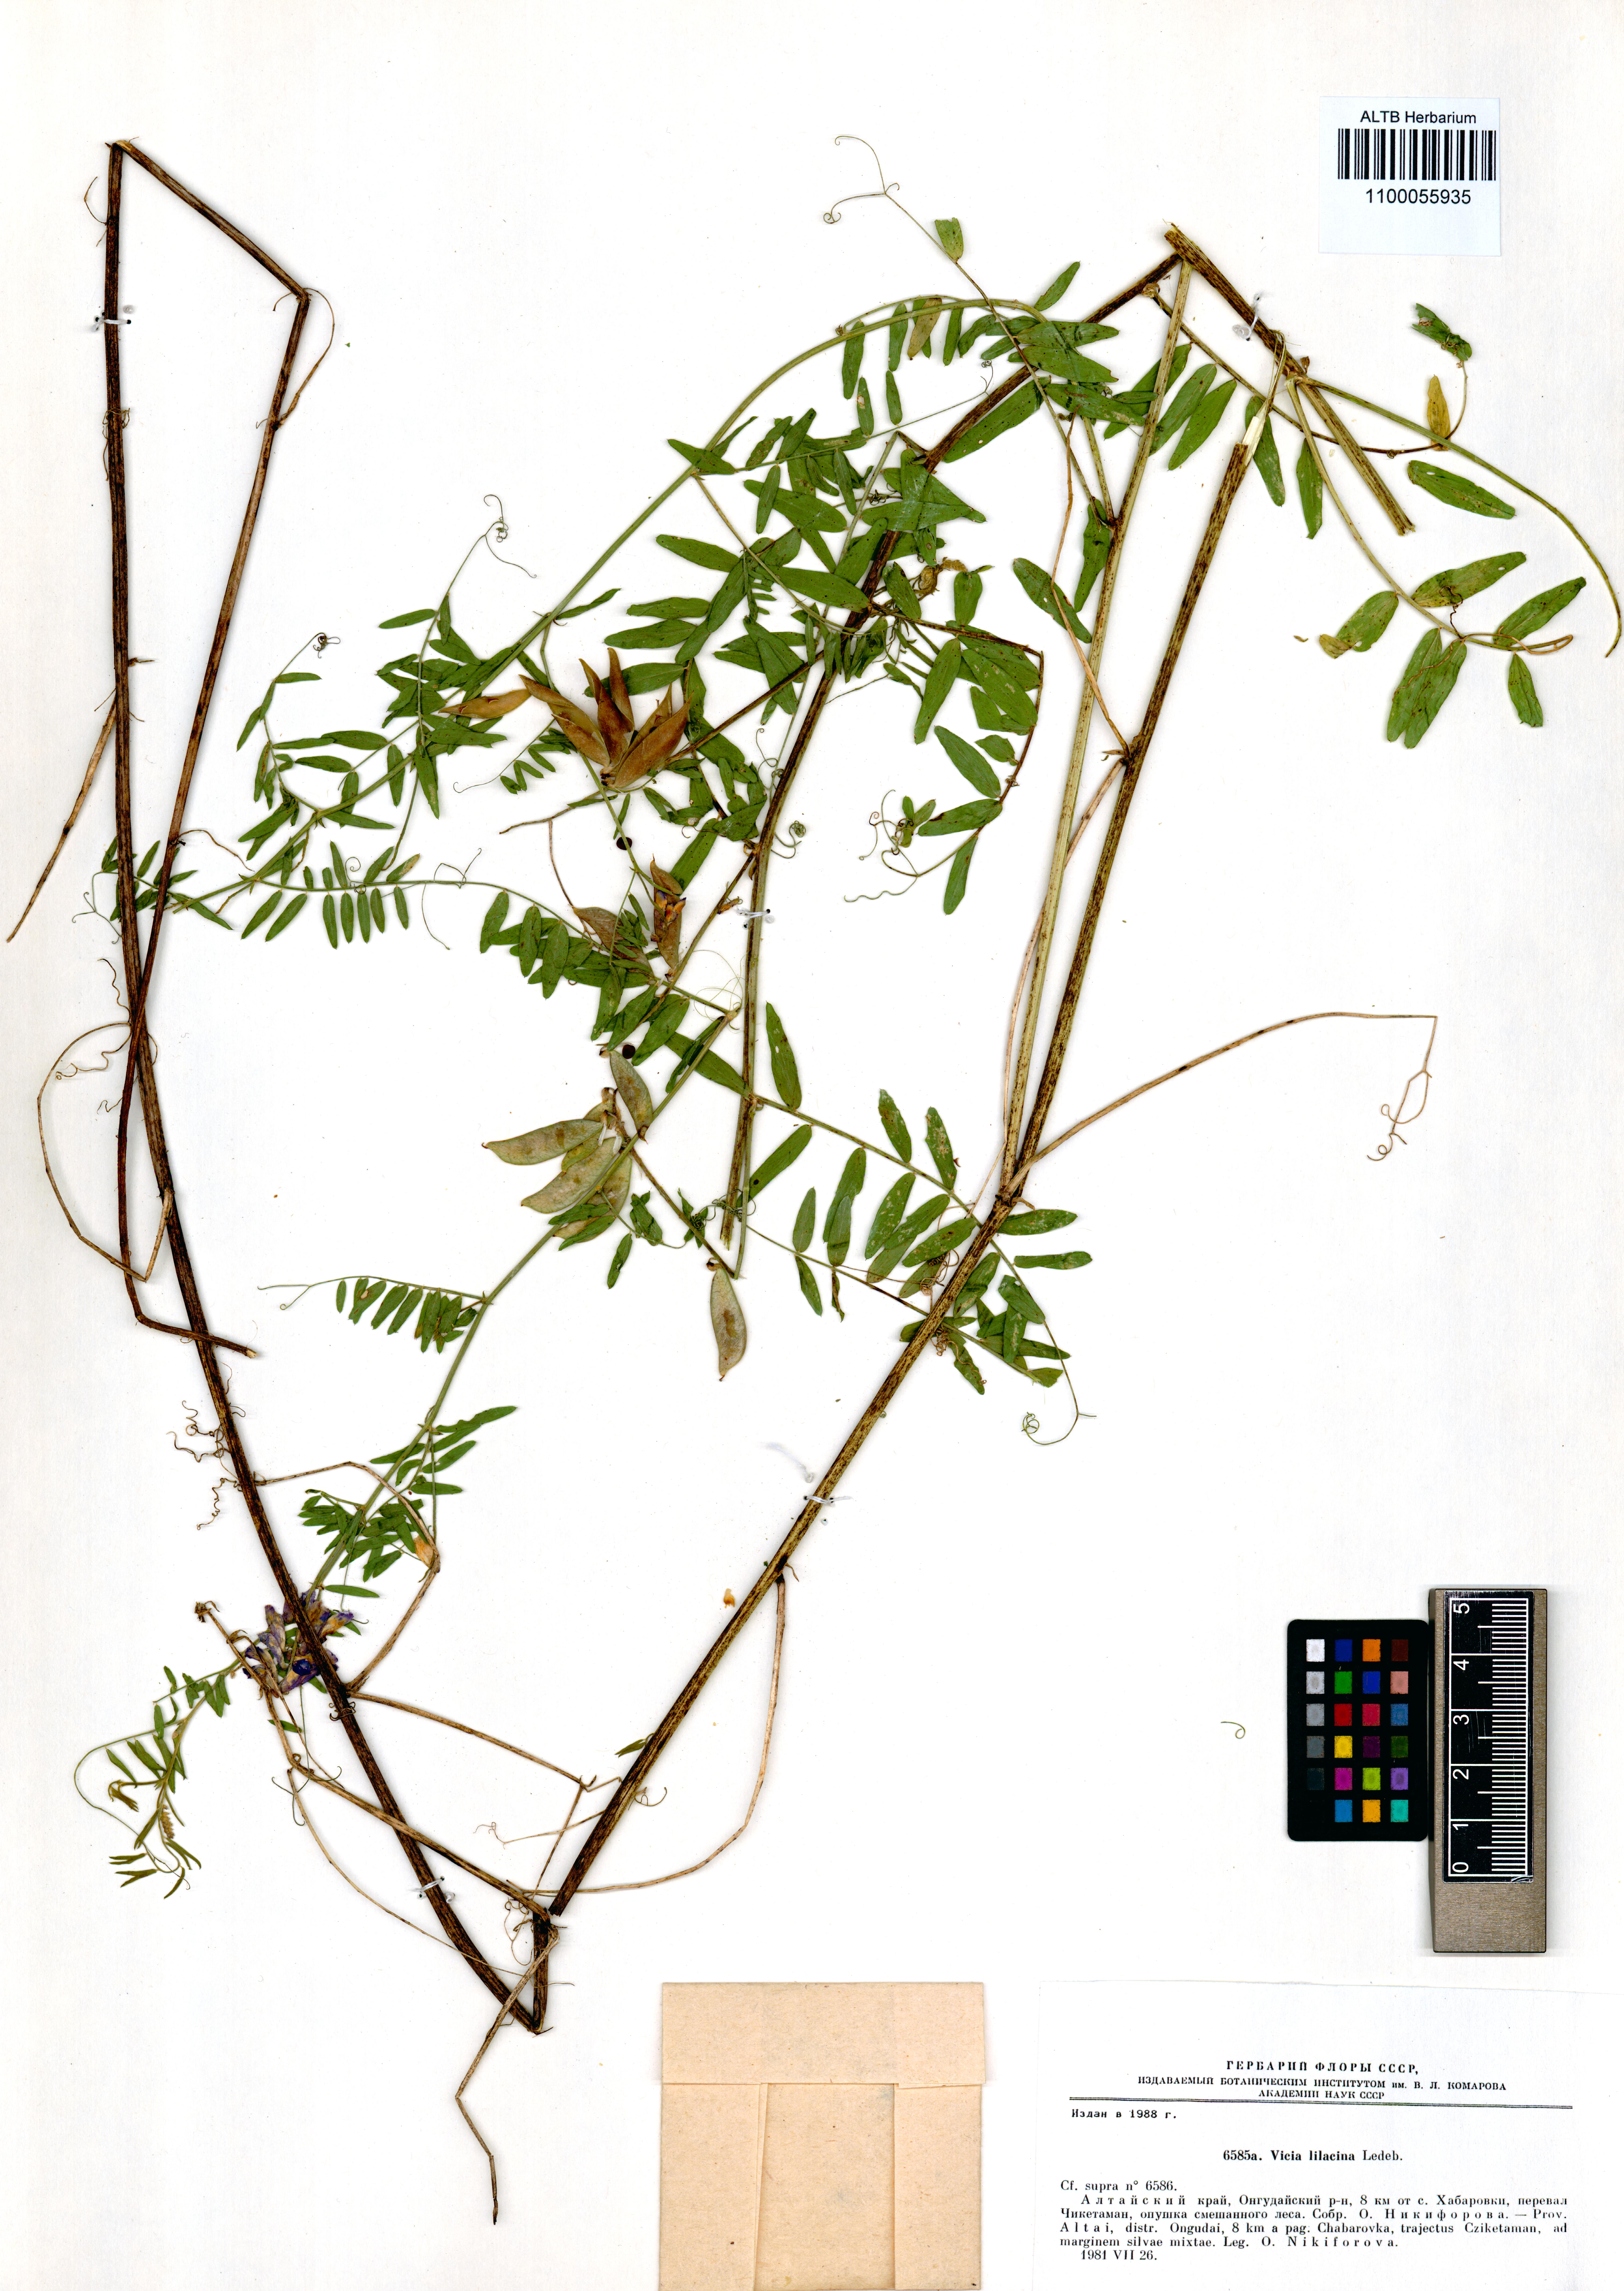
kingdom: Plantae
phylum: Tracheophyta
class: Magnoliopsida
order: Fabales
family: Fabaceae
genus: Vicia
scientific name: Vicia lilacina
